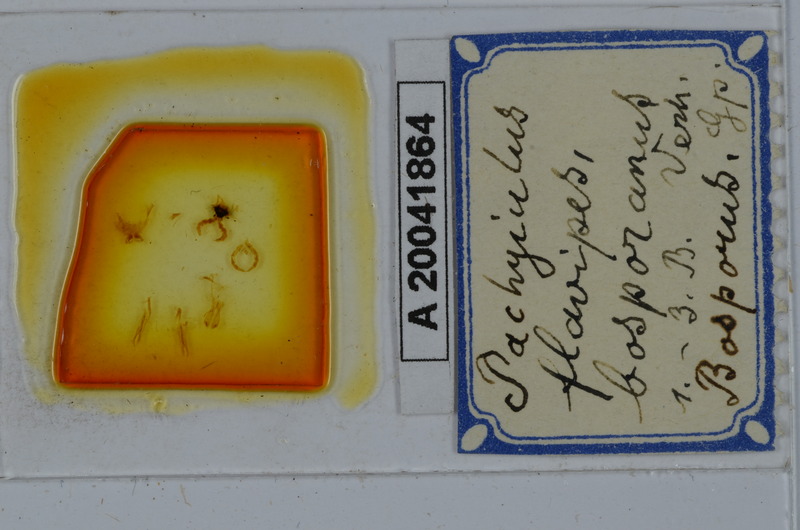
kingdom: Animalia
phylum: Arthropoda
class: Diplopoda
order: Julida
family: Julidae
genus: Pachyiulus
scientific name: Pachyiulus flavipes
